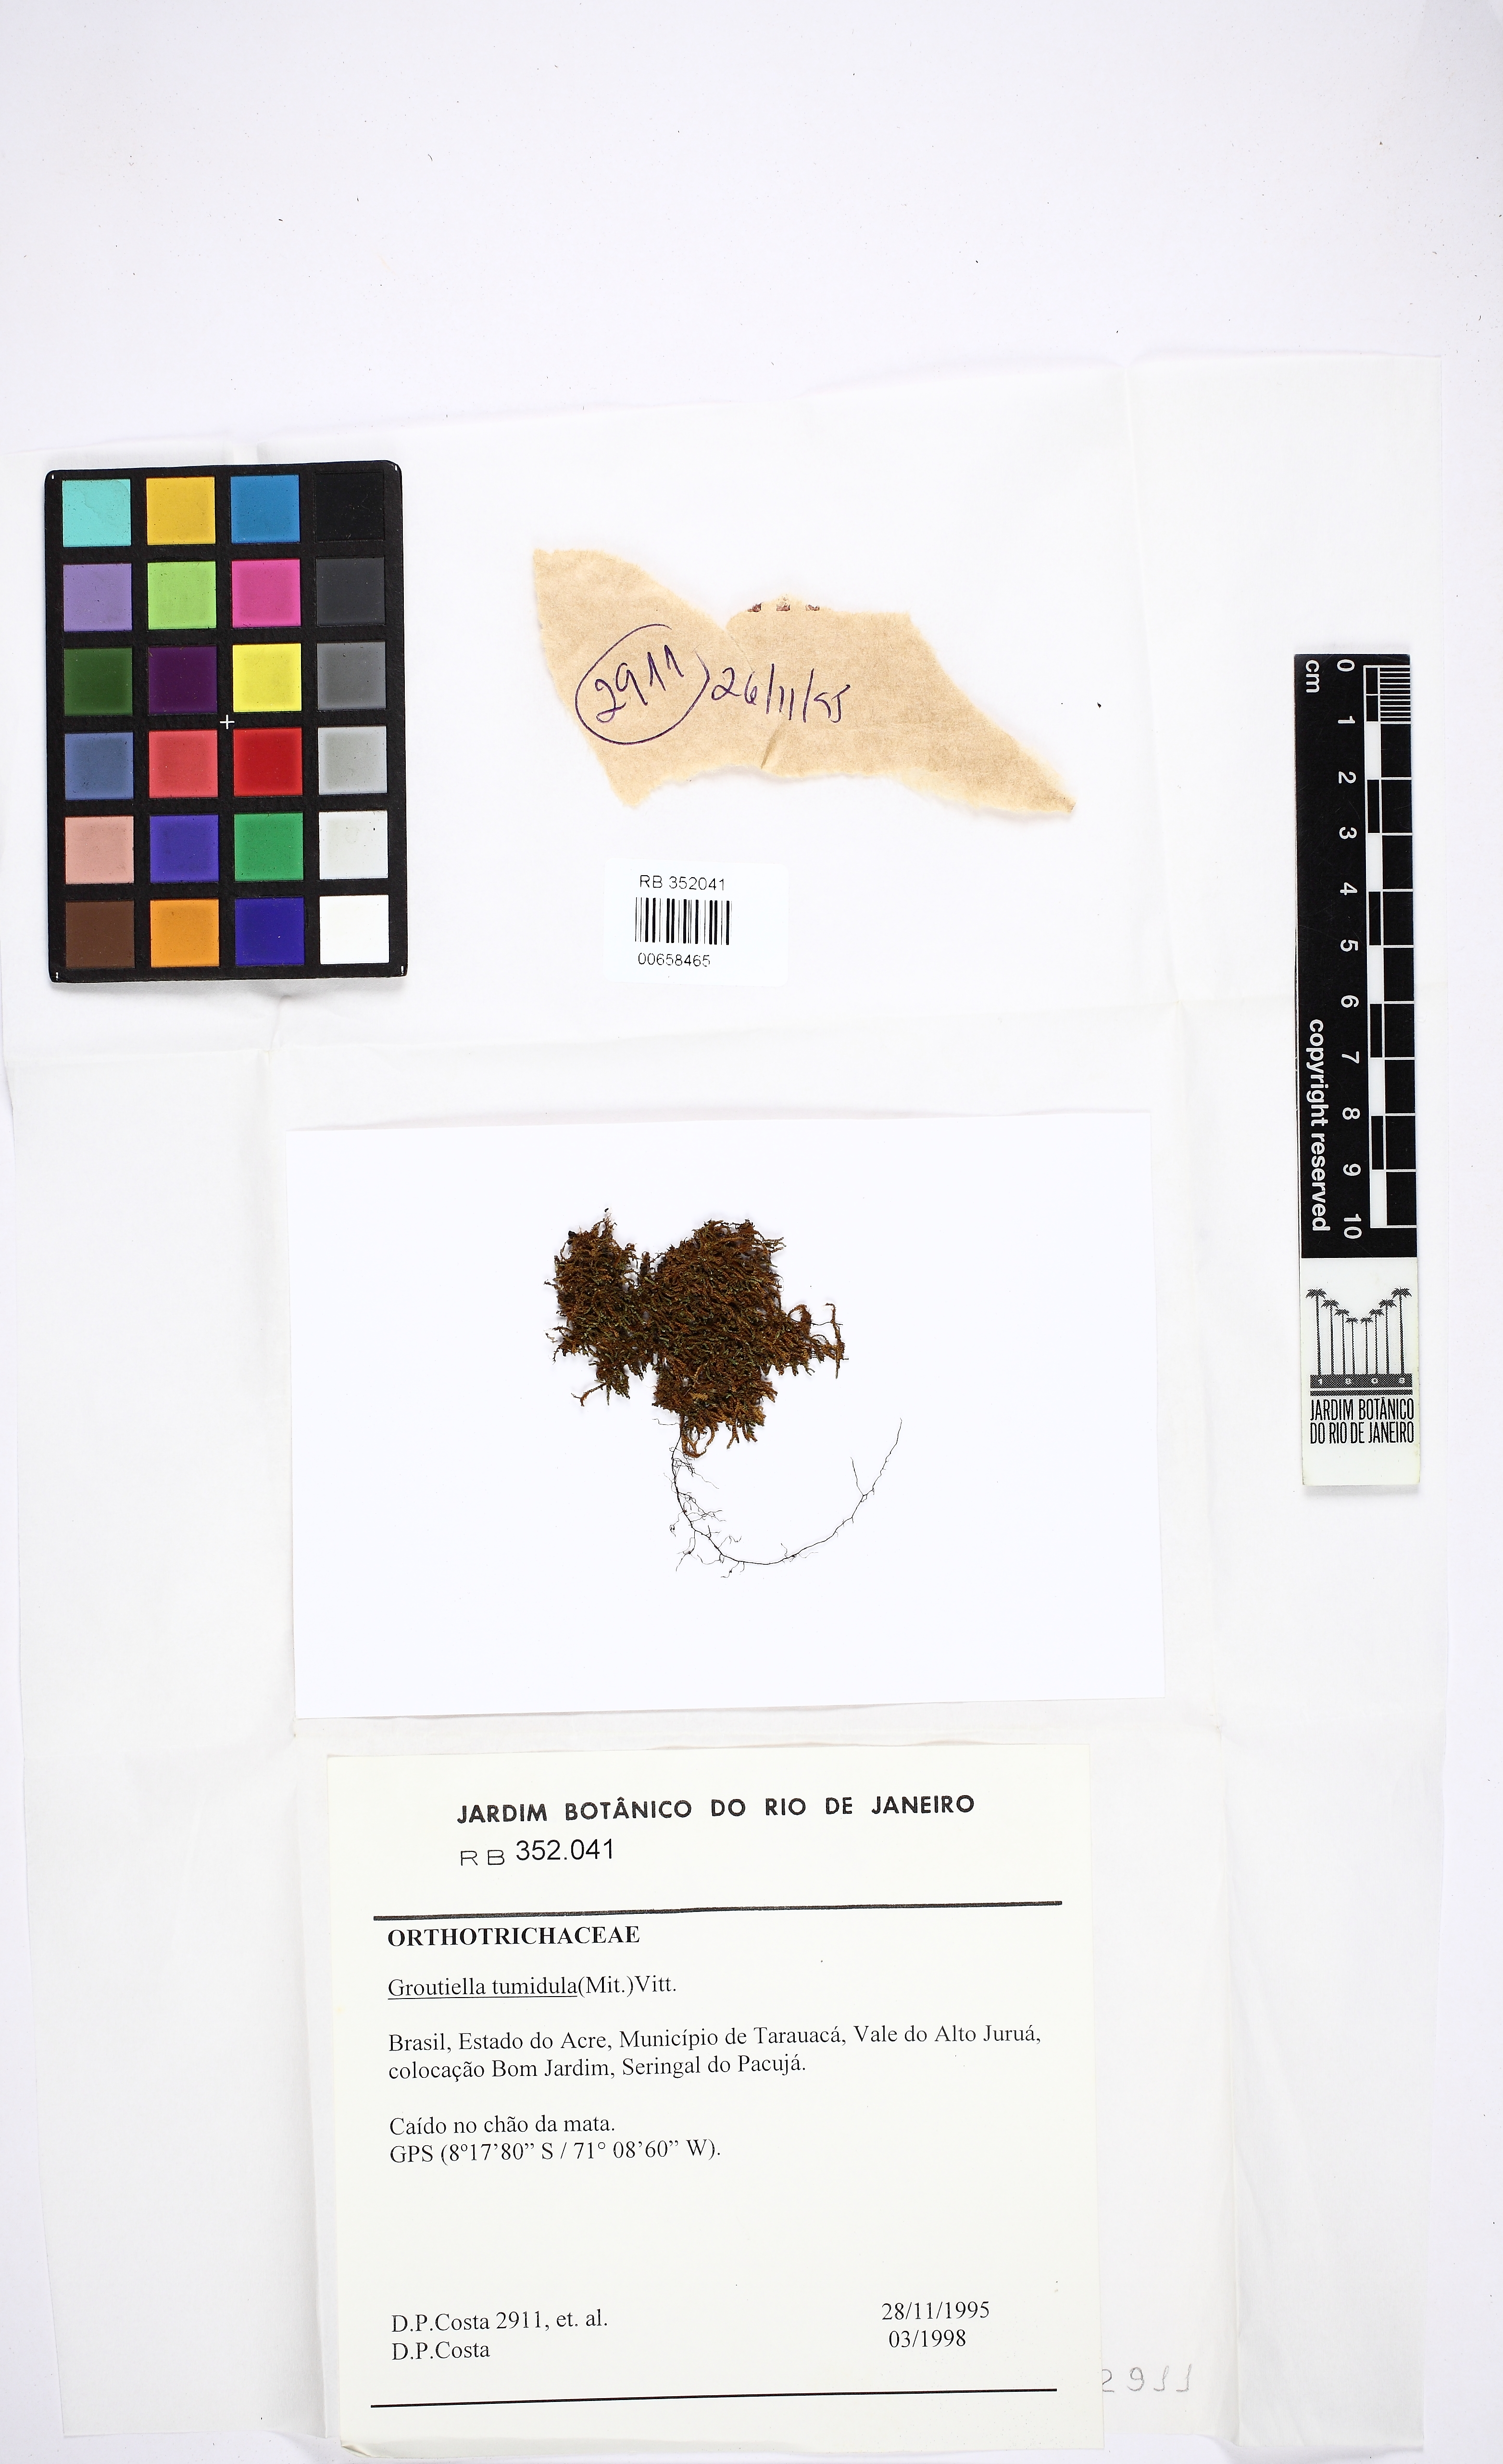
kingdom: Plantae
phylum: Bryophyta
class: Bryopsida
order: Orthotrichales
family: Orthotrichaceae
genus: Groutiella
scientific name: Groutiella tumidula
